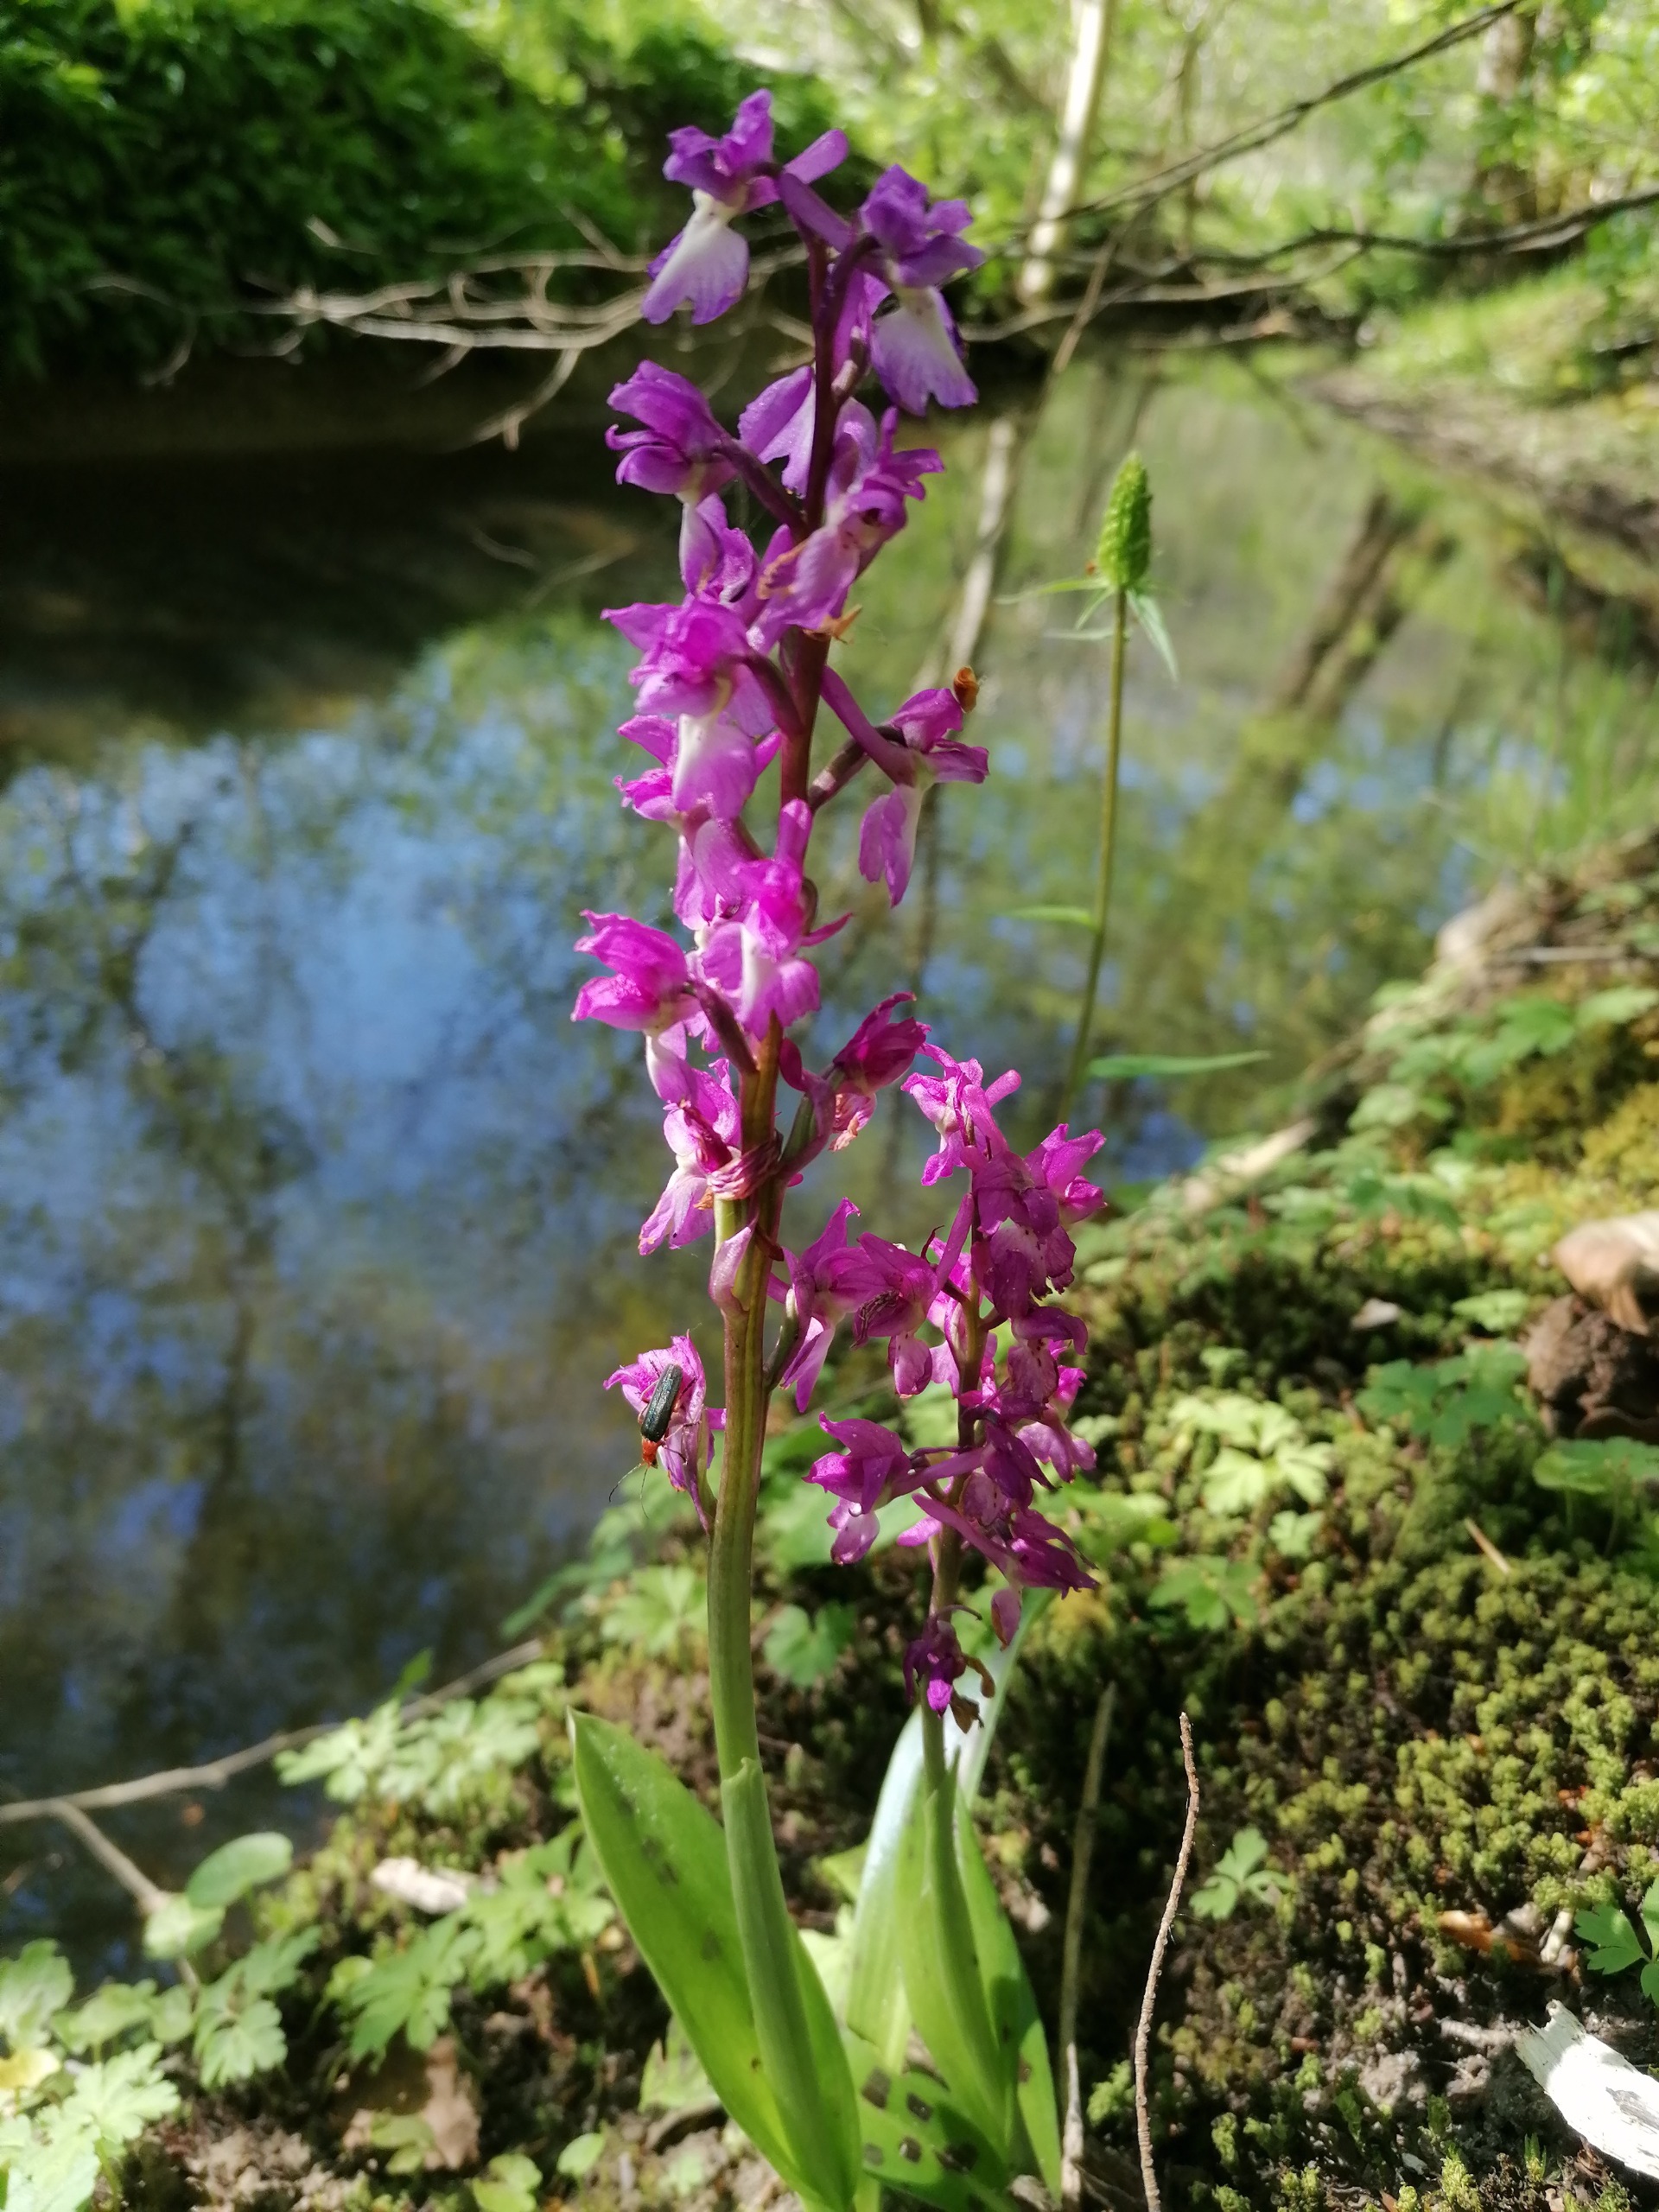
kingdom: Plantae
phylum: Tracheophyta
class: Liliopsida
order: Asparagales
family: Orchidaceae
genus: Orchis
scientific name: Orchis mascula
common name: Tyndakset gøgeurt
